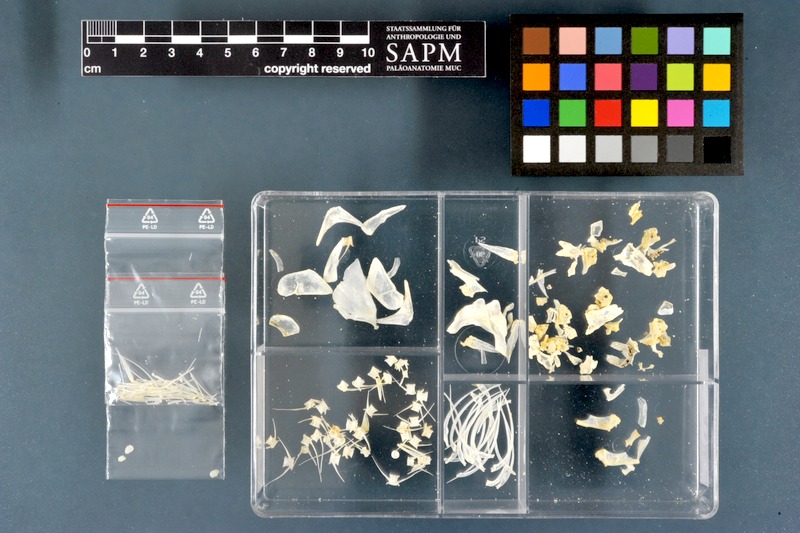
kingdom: Animalia
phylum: Chordata
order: Characiformes
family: Alestidae
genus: Brycinus
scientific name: Brycinus macrolepidotus
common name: Characin
